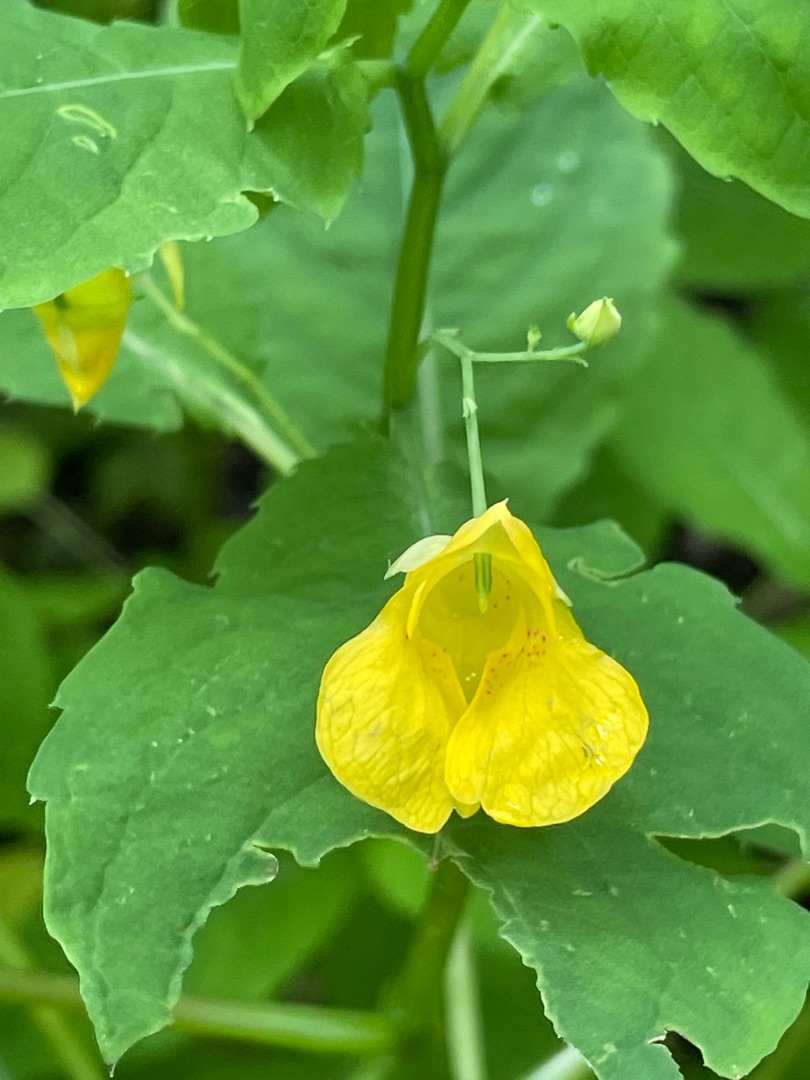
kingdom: Plantae
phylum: Tracheophyta
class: Magnoliopsida
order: Ericales
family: Balsaminaceae
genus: Impatiens
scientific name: Impatiens noli-tangere
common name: Spring-balsamin
